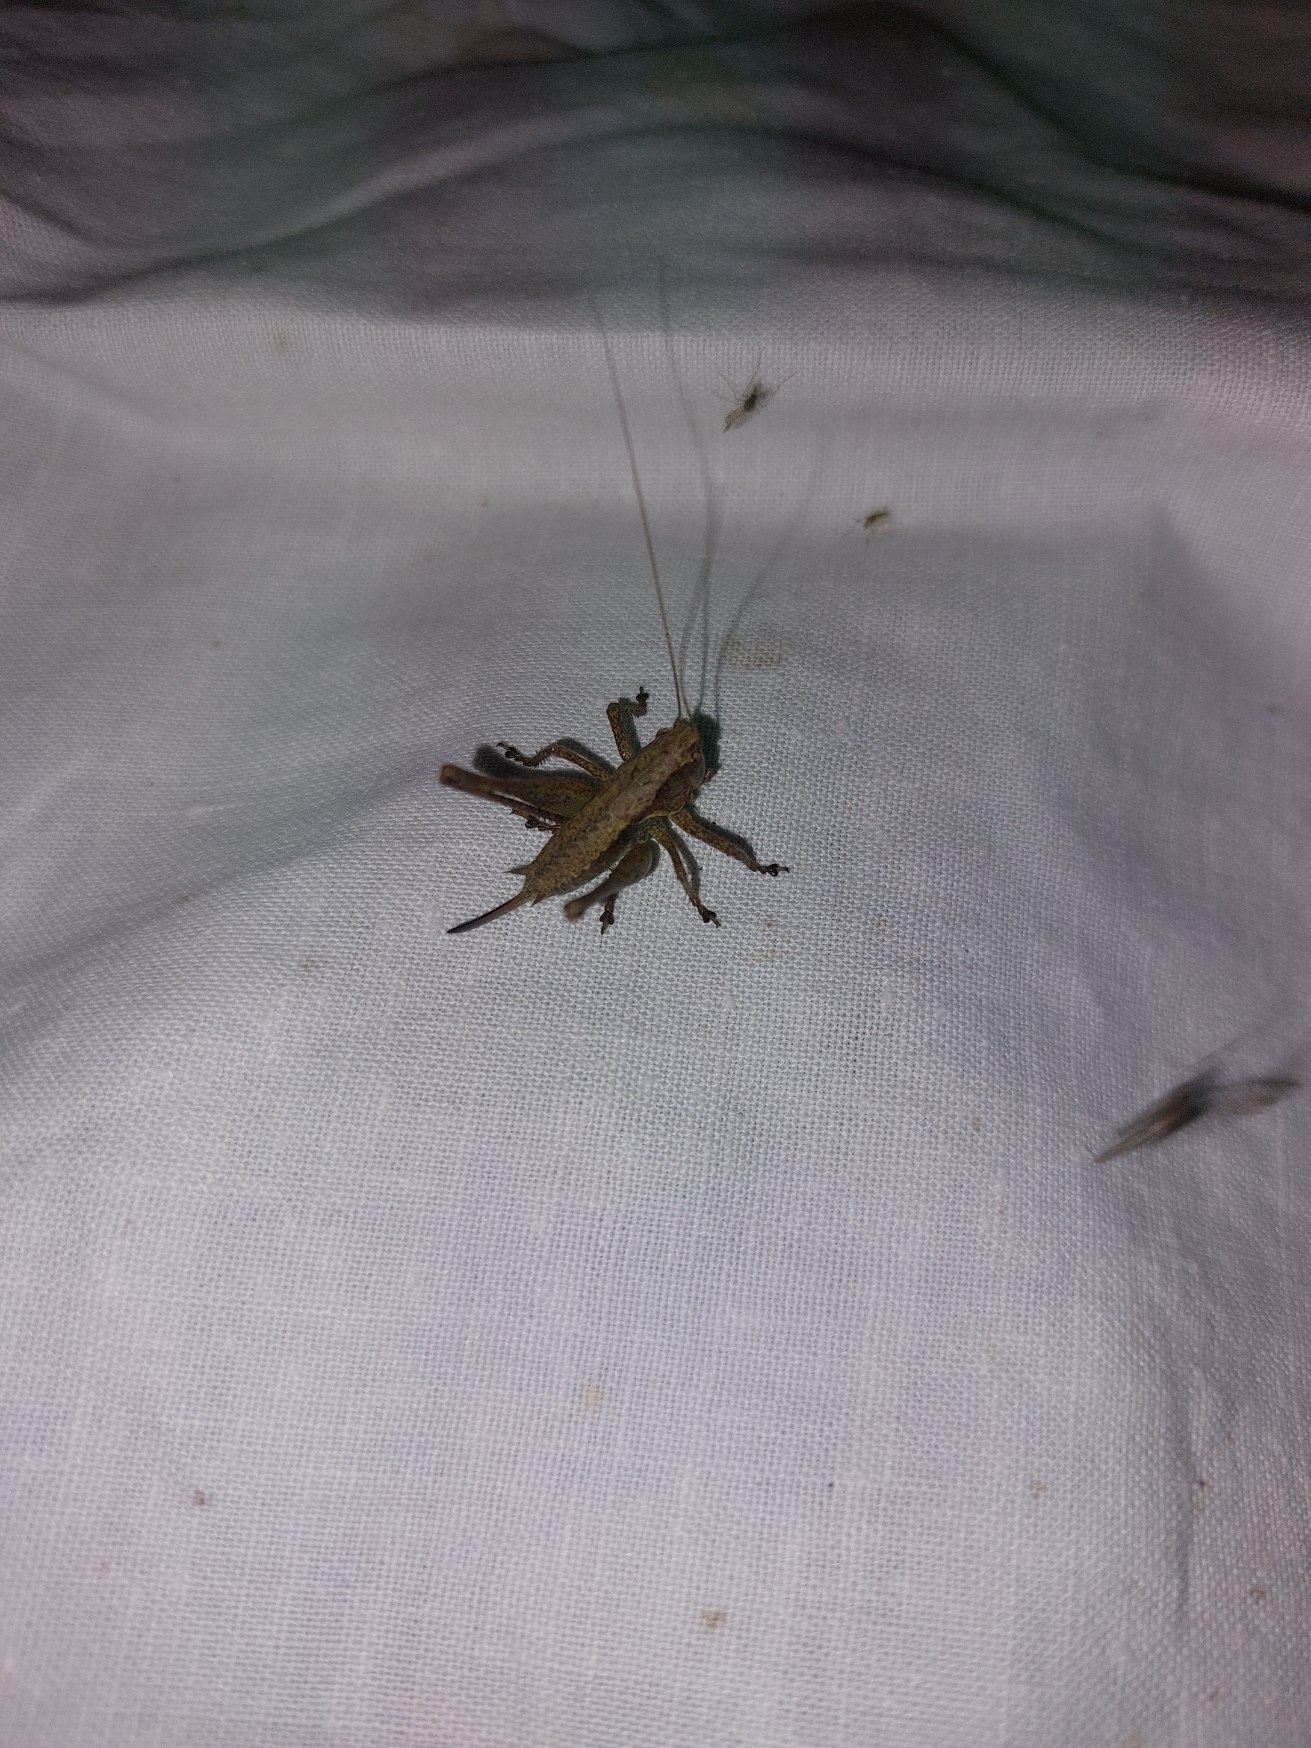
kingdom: Animalia
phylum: Arthropoda
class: Insecta
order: Orthoptera
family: Tettigoniidae
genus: Pholidoptera
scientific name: Pholidoptera griseoaptera
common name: Buskgræshoppe
